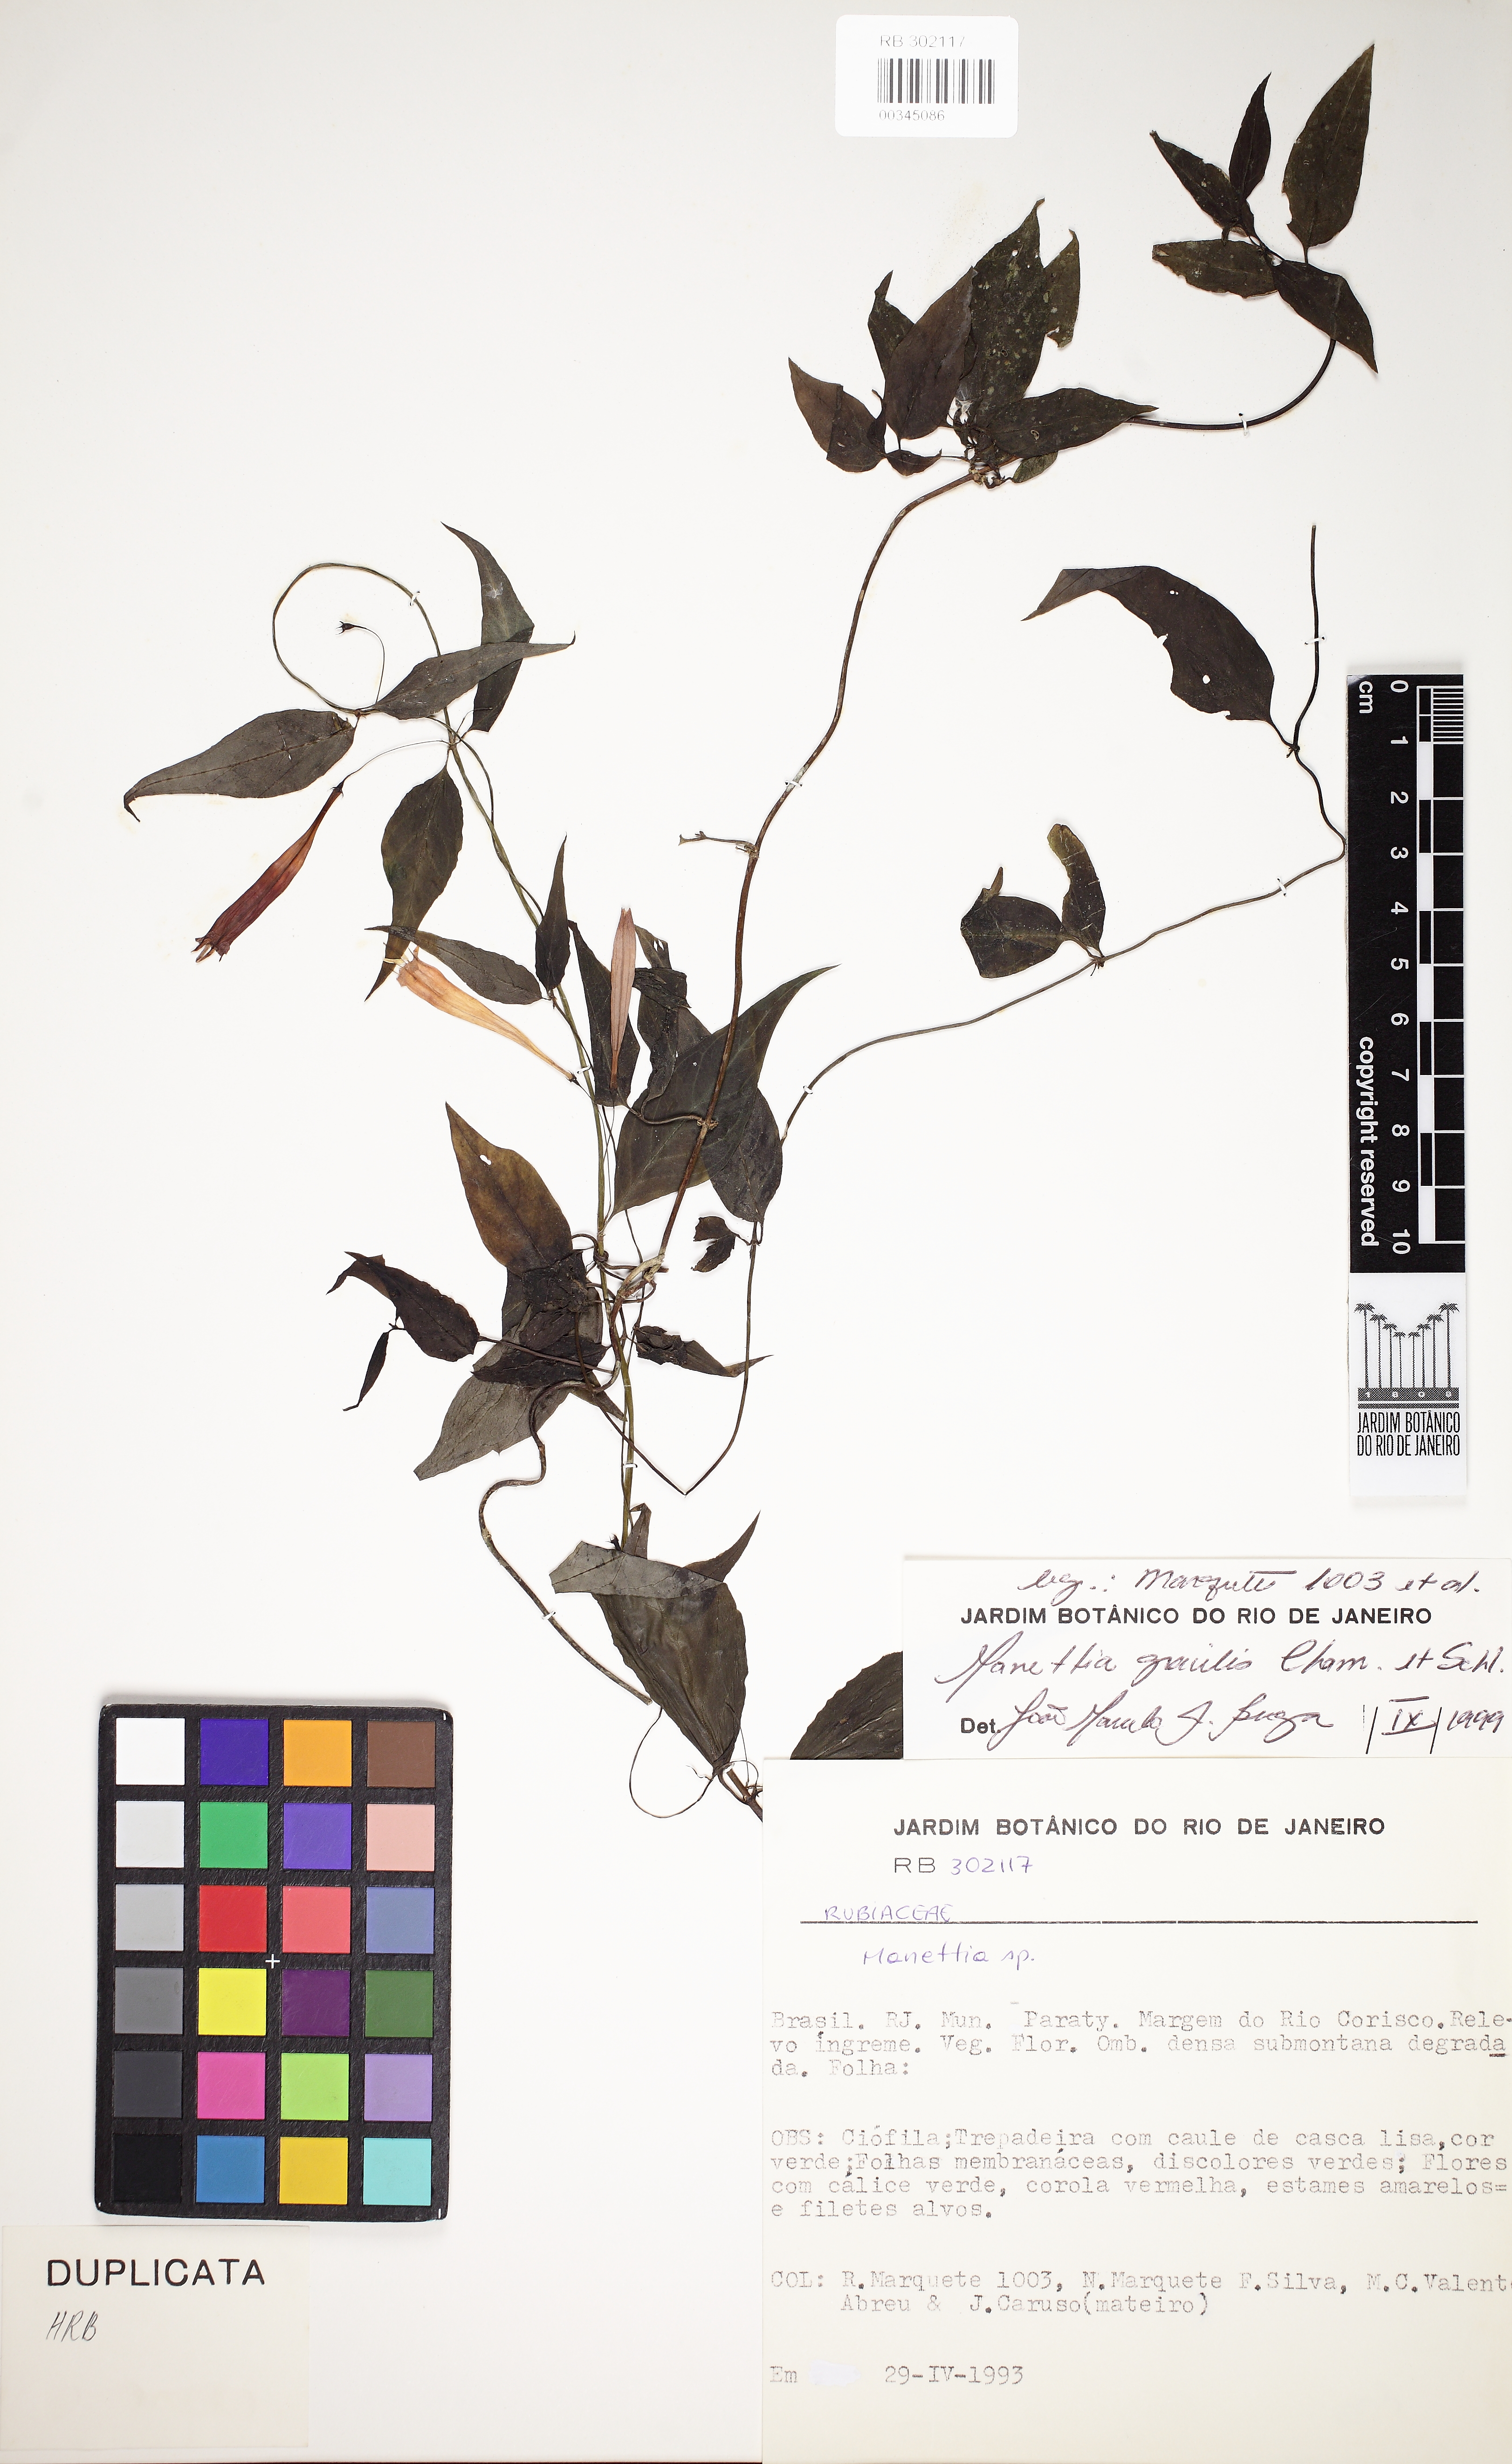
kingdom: Plantae
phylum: Tracheophyta
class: Magnoliopsida
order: Gentianales
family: Rubiaceae
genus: Manettia
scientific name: Manettia gracilis
